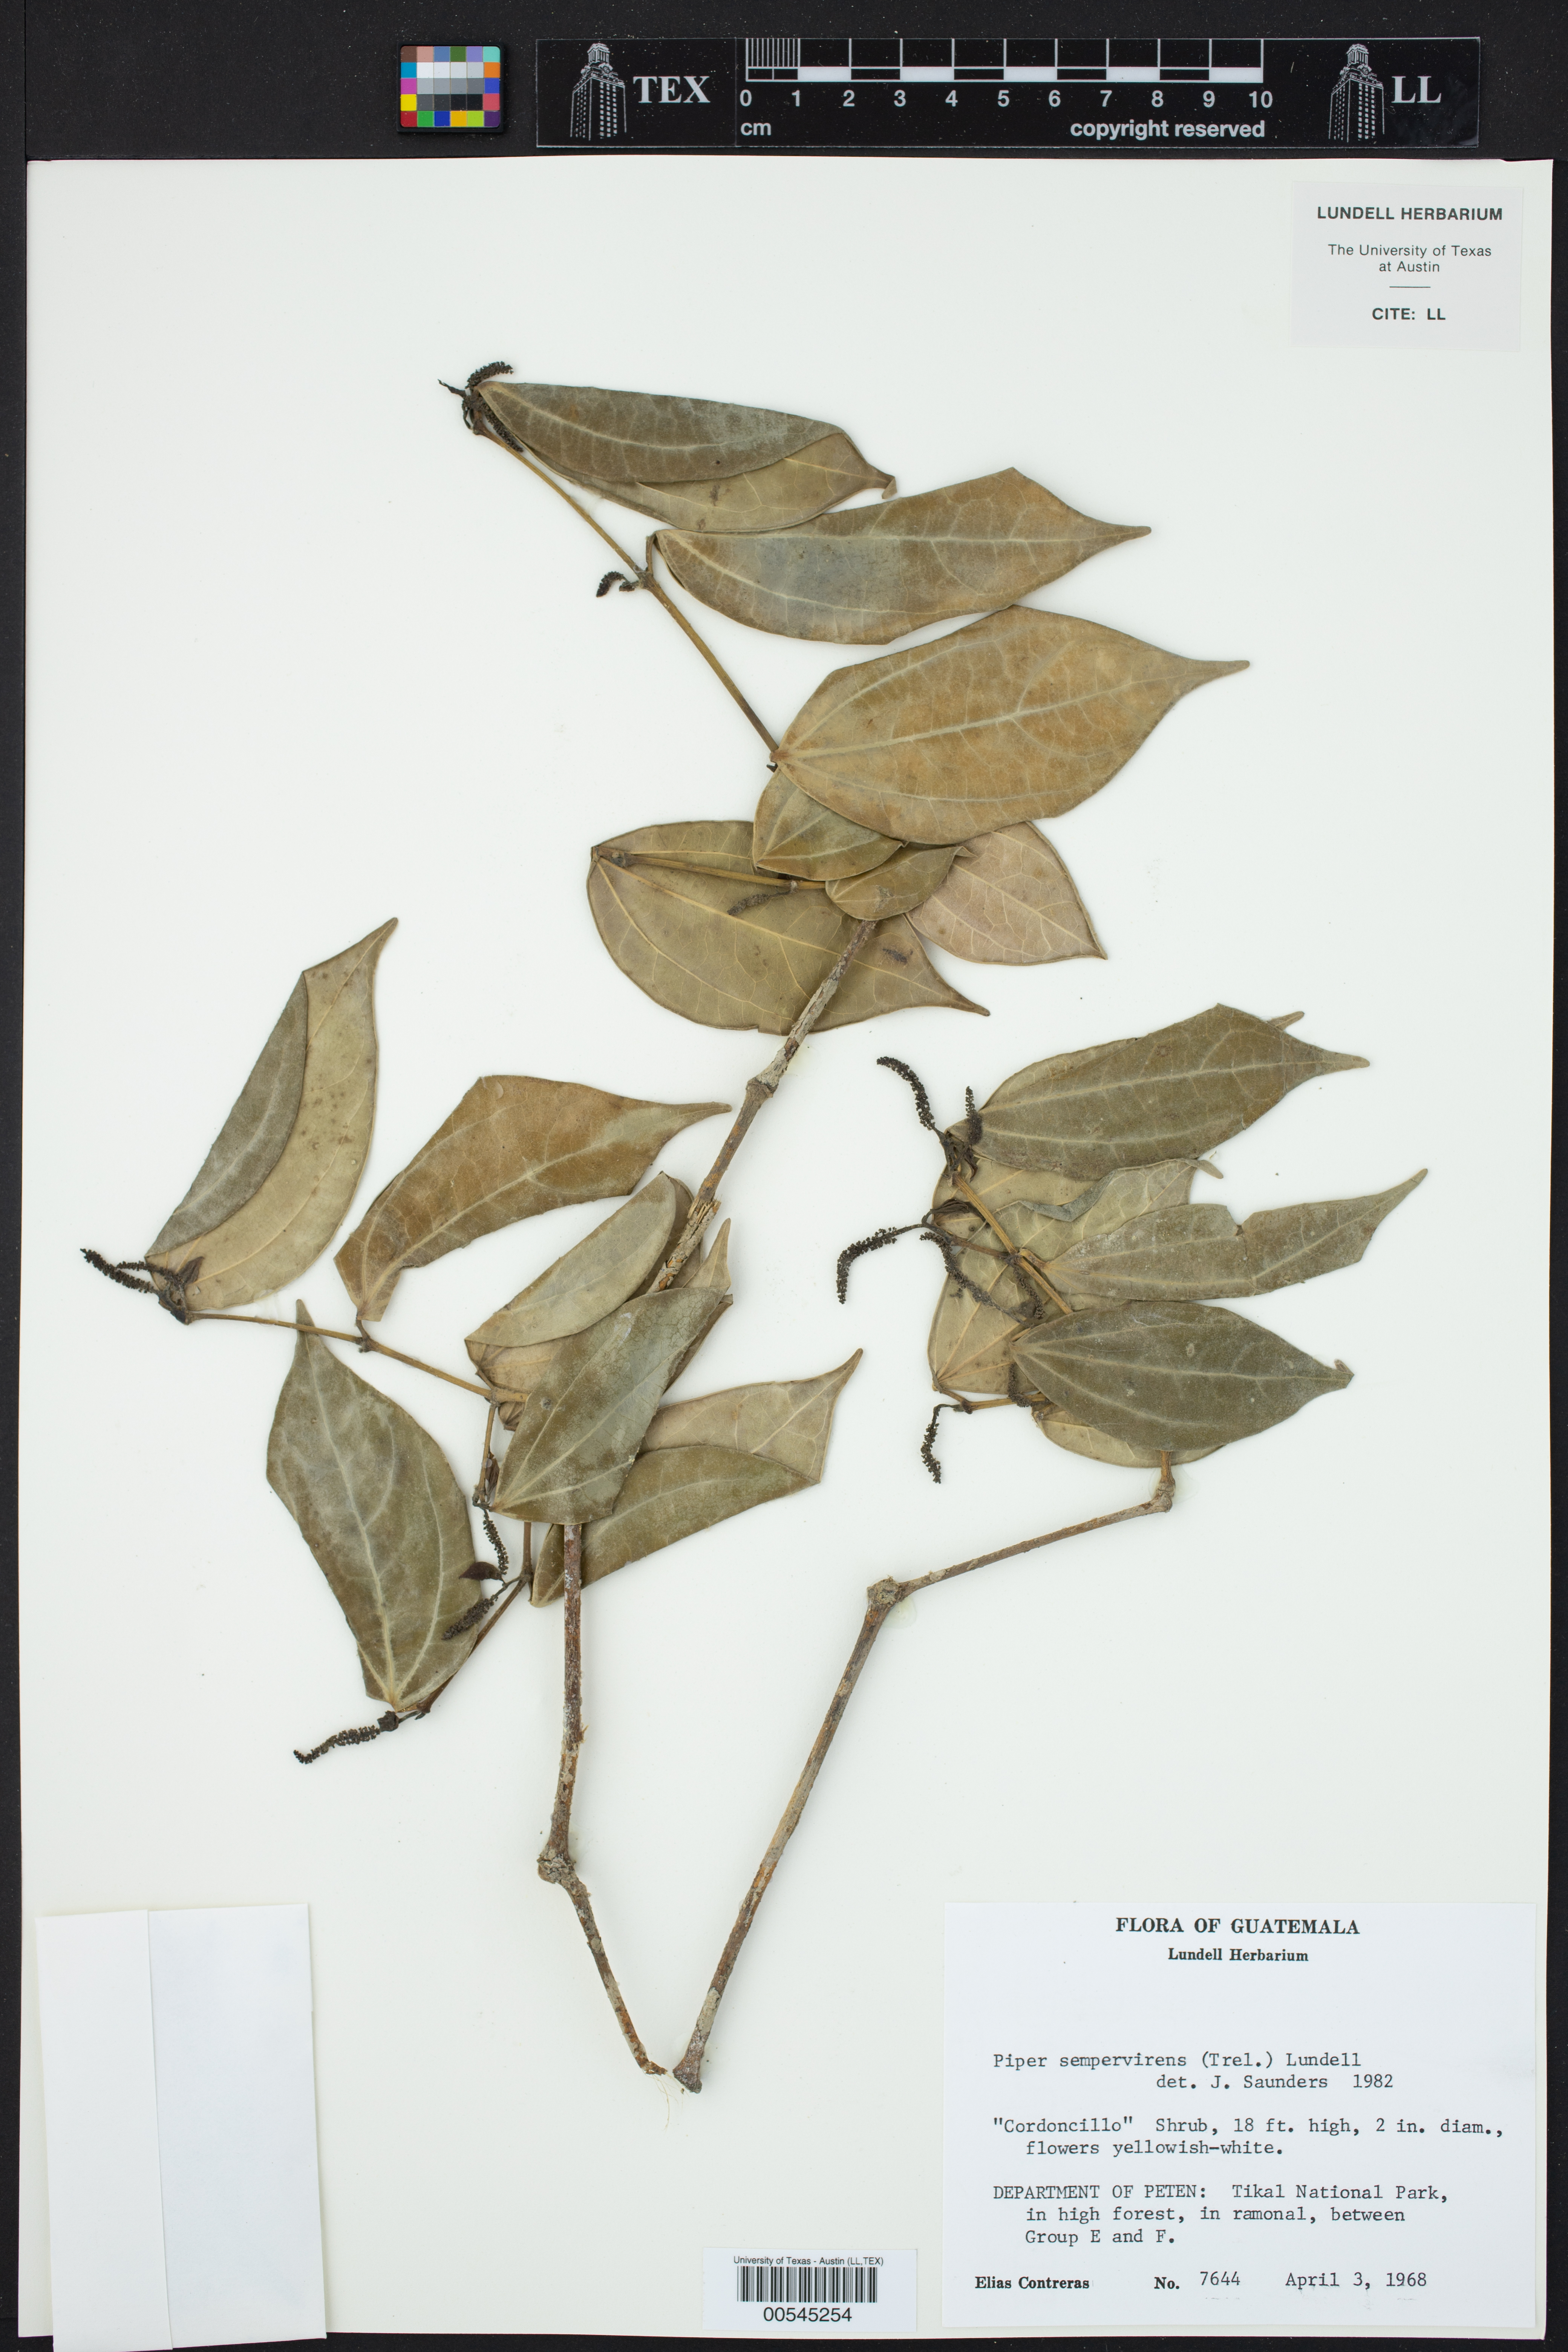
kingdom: Plantae
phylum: Tracheophyta
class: Magnoliopsida
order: Piperales
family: Piperaceae
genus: Piper
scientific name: Piper neesianum
